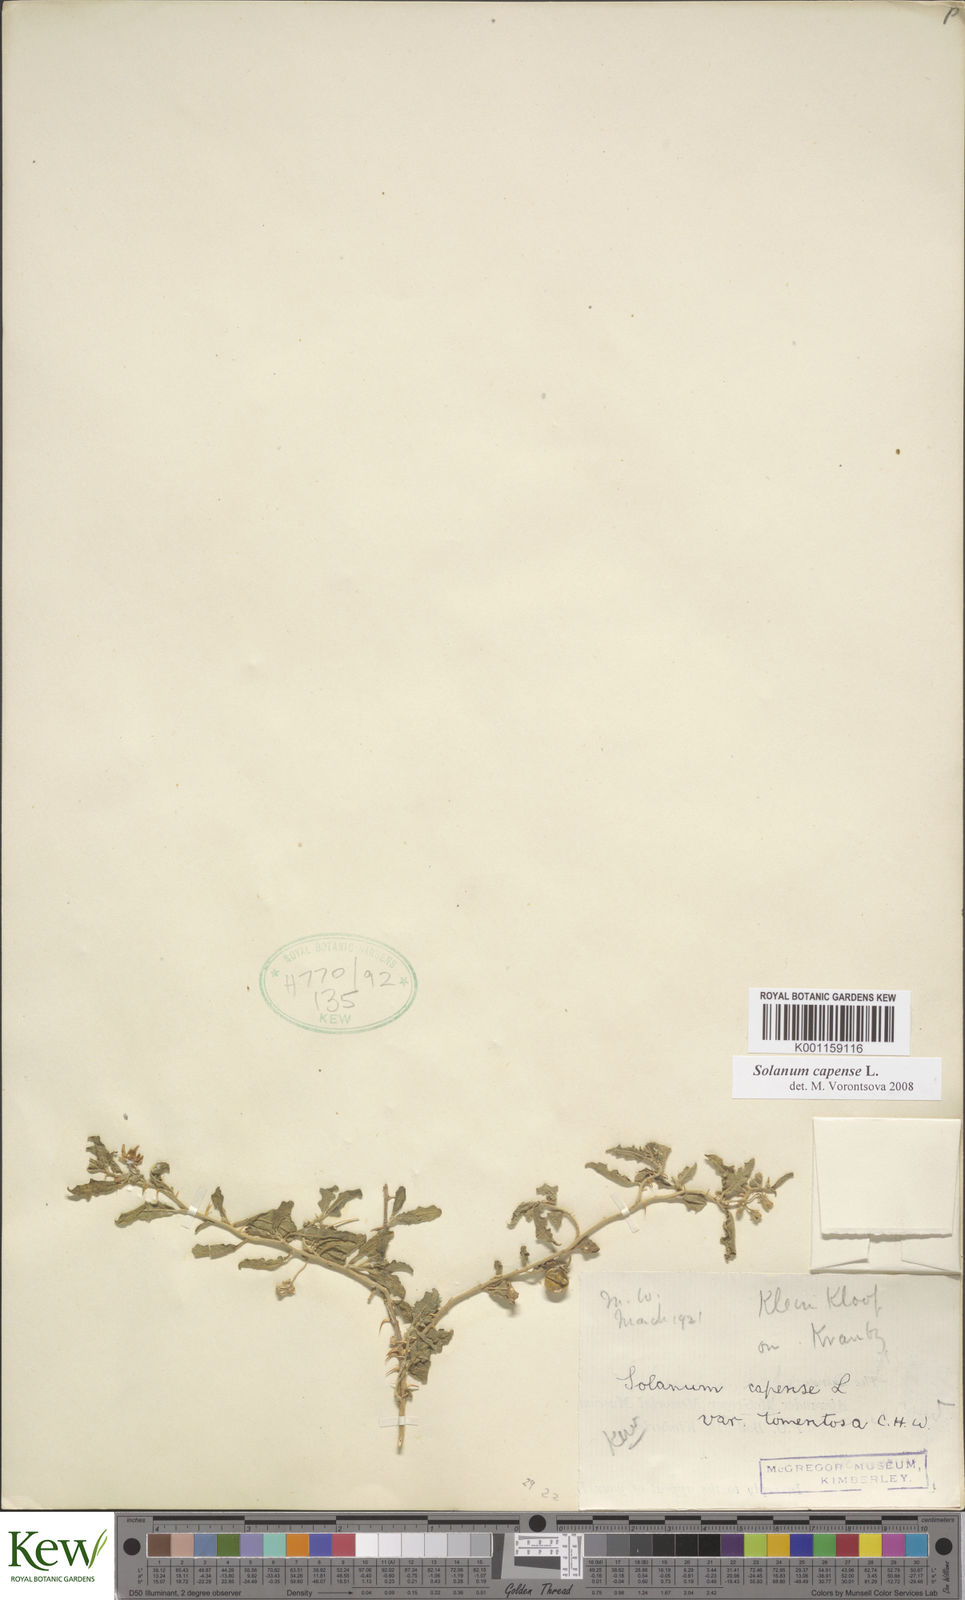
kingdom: Plantae
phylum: Tracheophyta
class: Magnoliopsida
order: Solanales
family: Solanaceae
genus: Solanum
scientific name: Solanum capense
